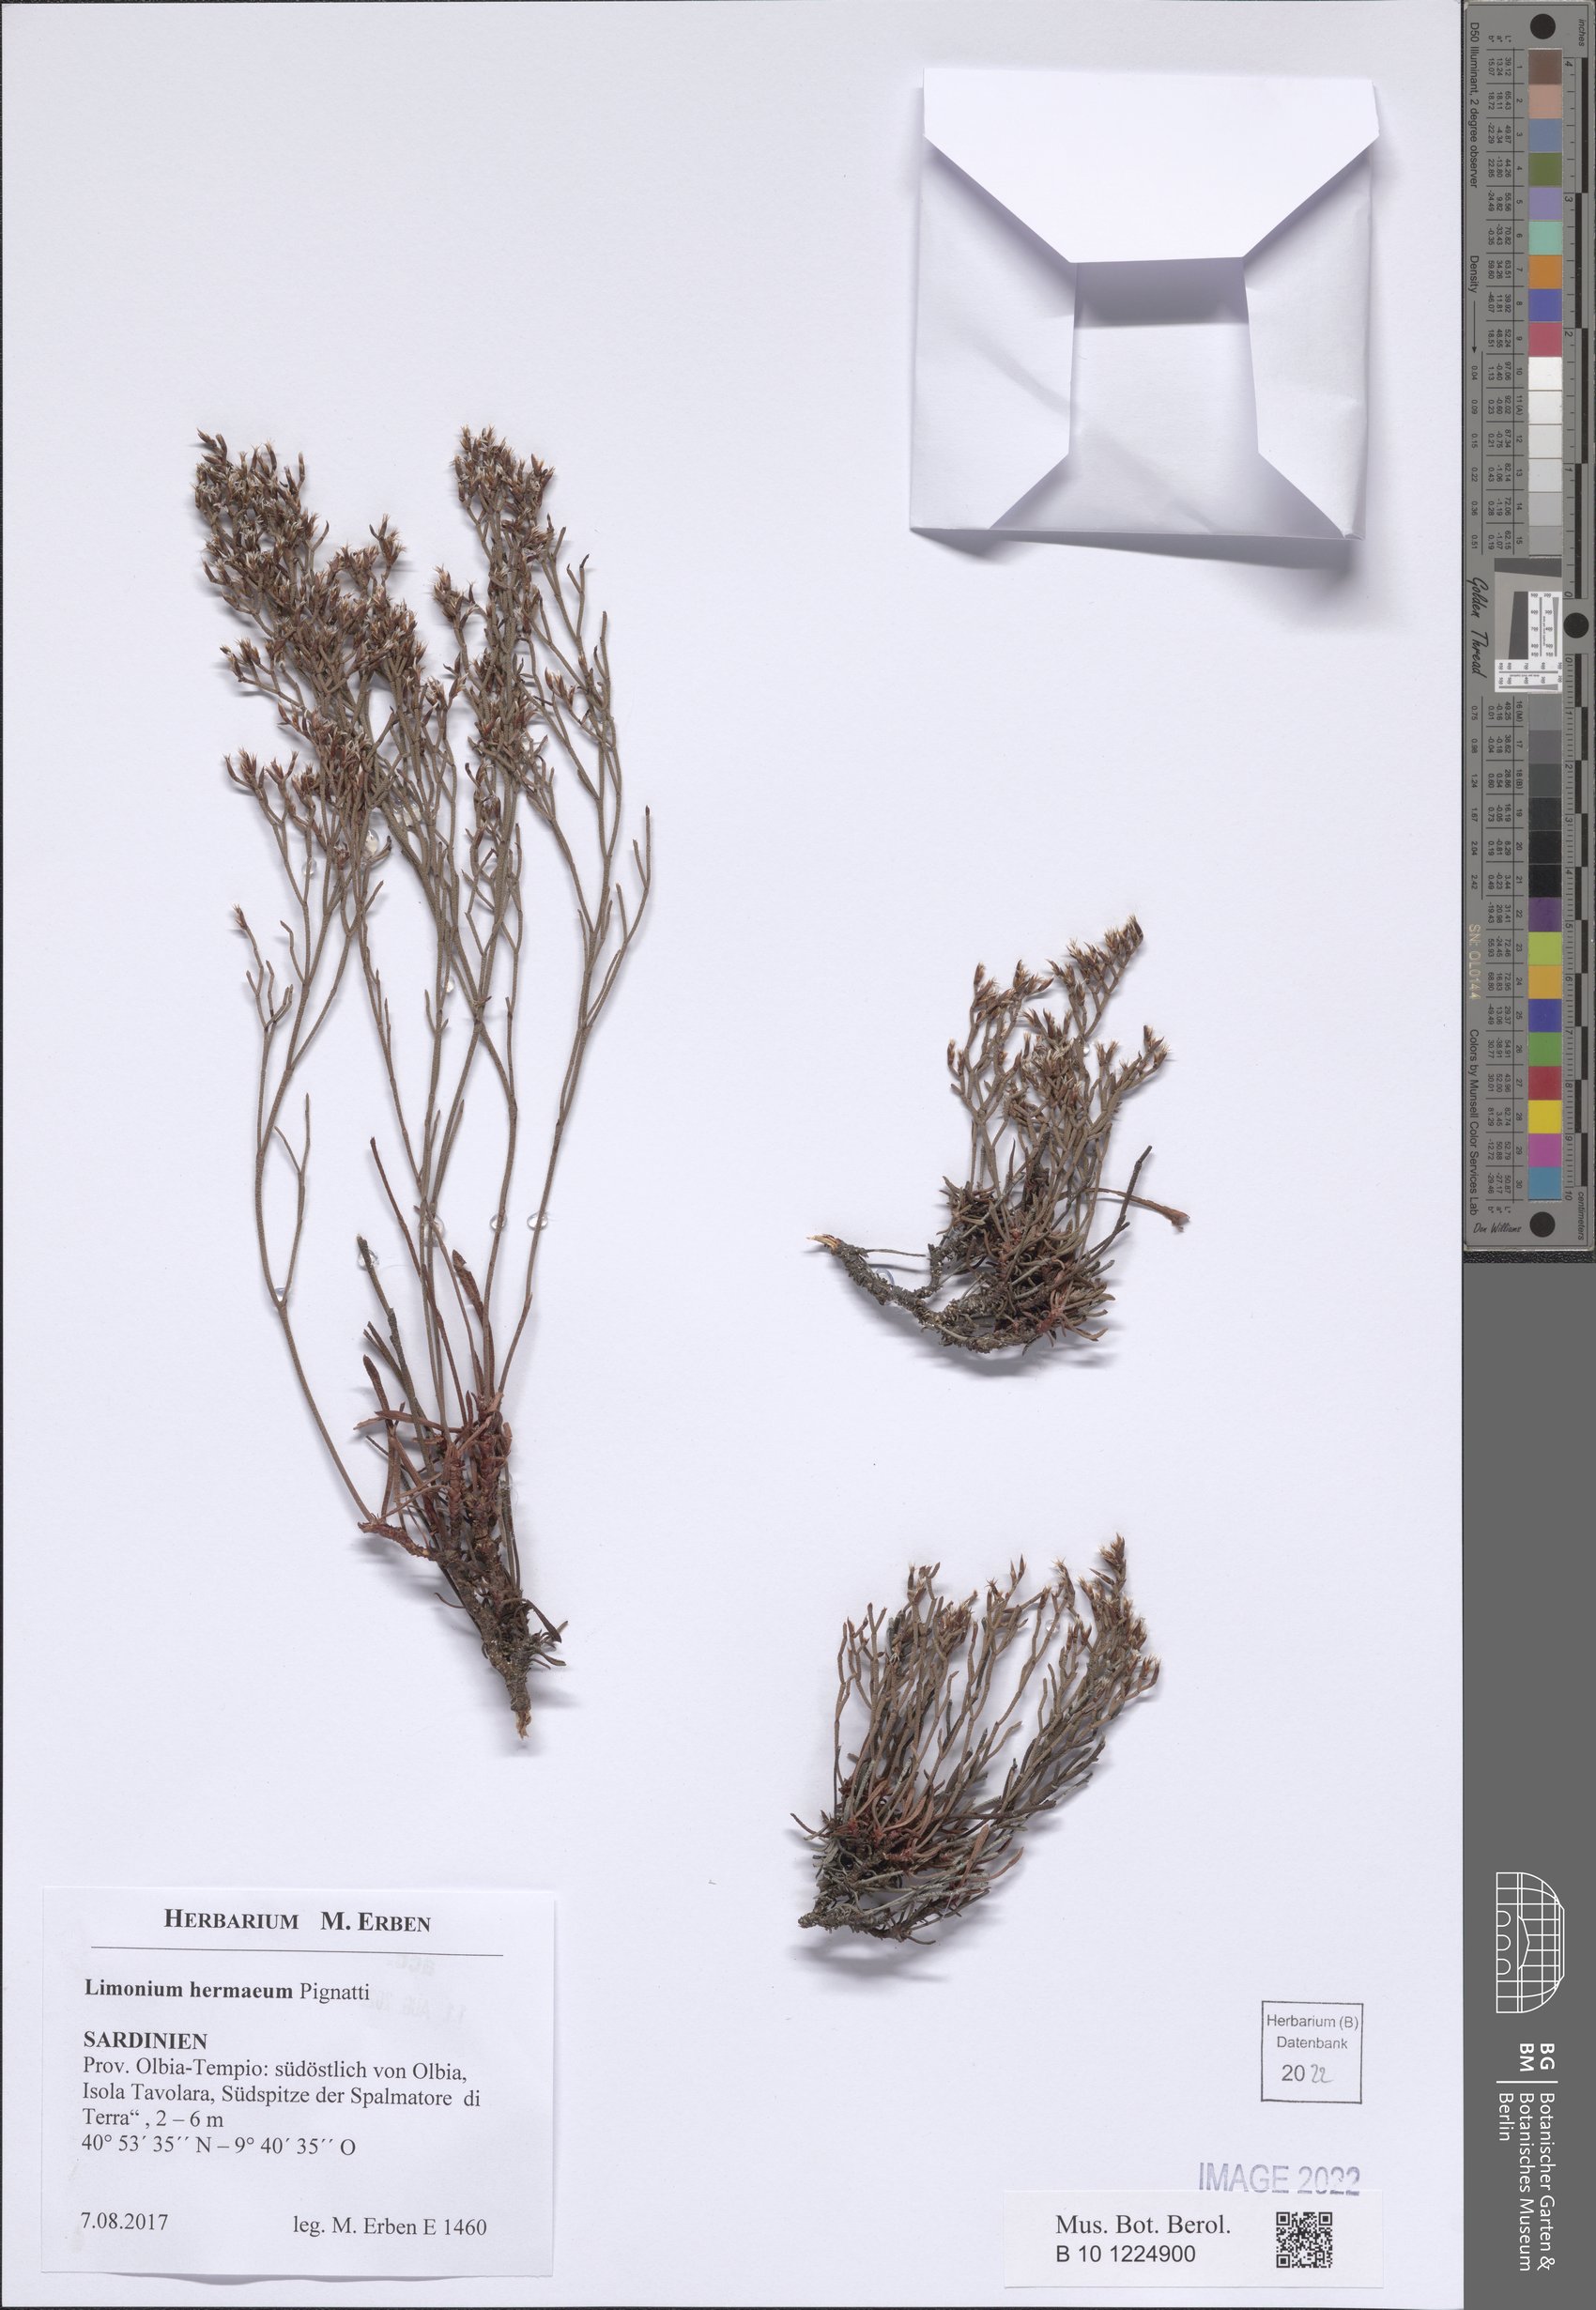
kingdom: Plantae
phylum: Tracheophyta
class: Magnoliopsida
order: Caryophyllales
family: Plumbaginaceae
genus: Limonium
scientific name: Limonium hermaeum
